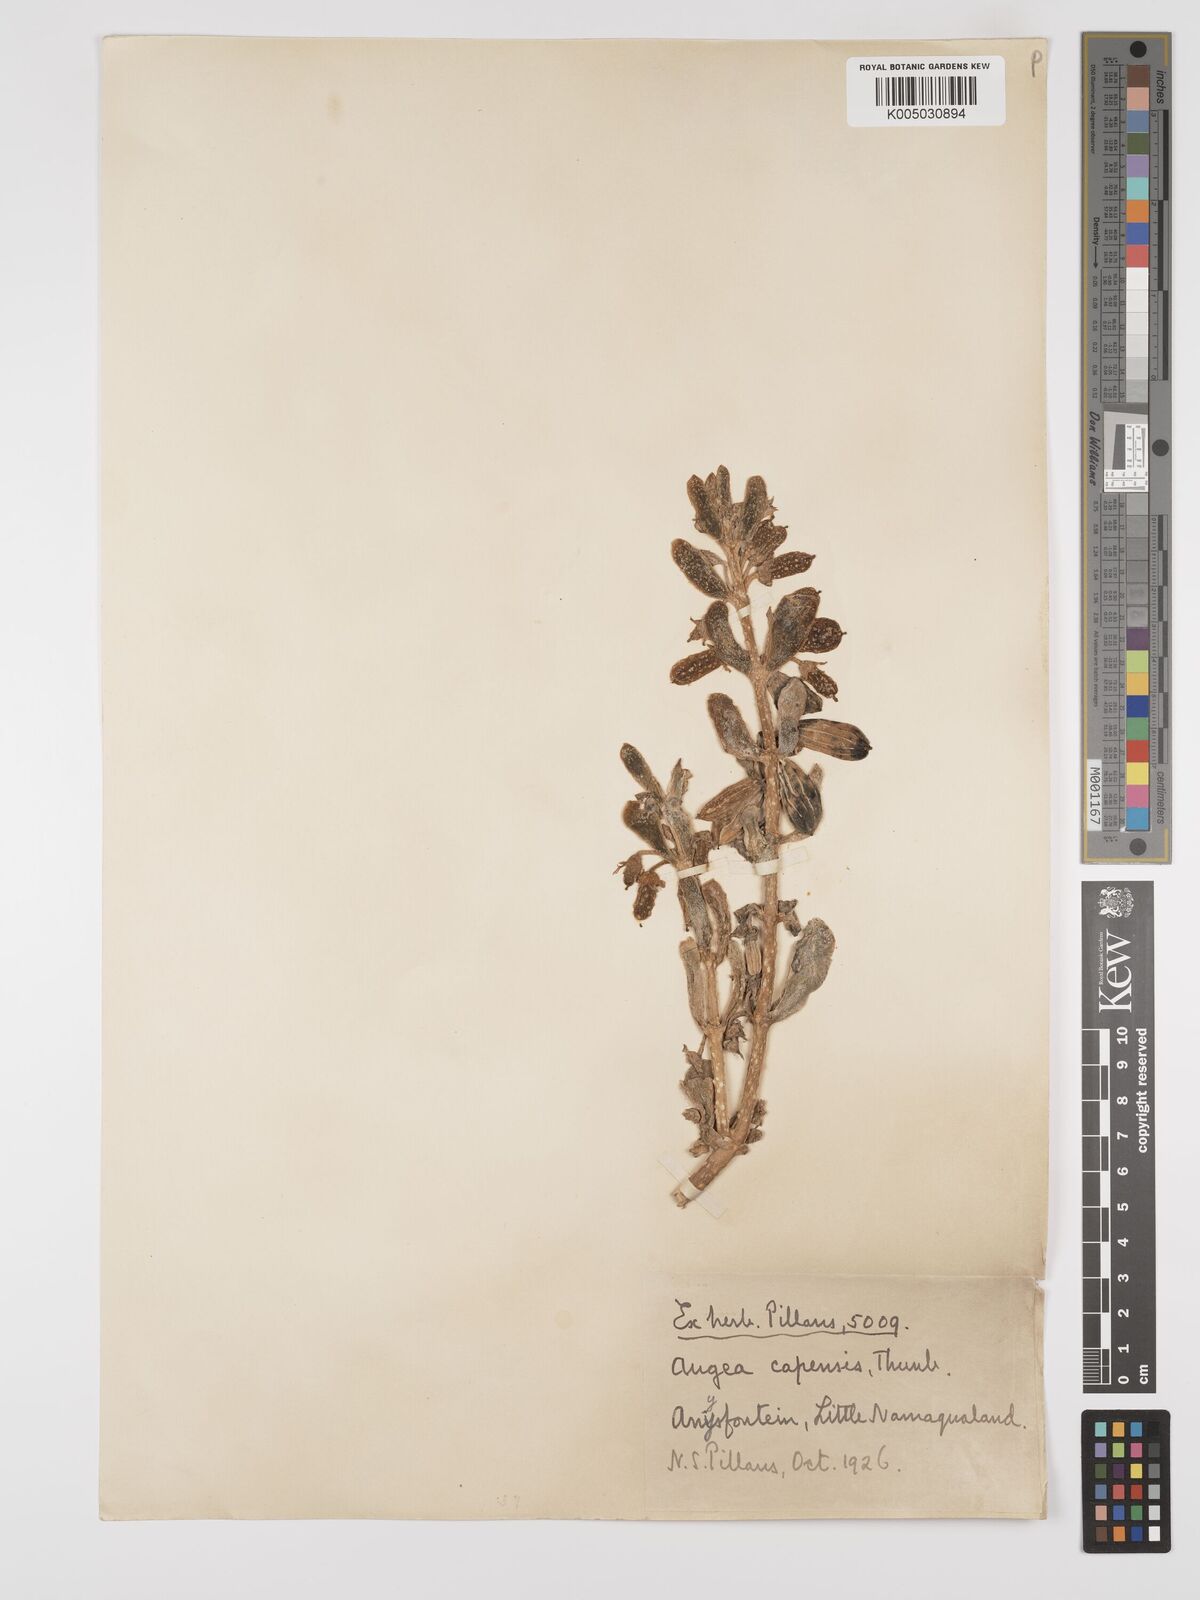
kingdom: Plantae
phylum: Tracheophyta
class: Magnoliopsida
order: Zygophyllales
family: Zygophyllaceae
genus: Augea
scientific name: Augea capensis
